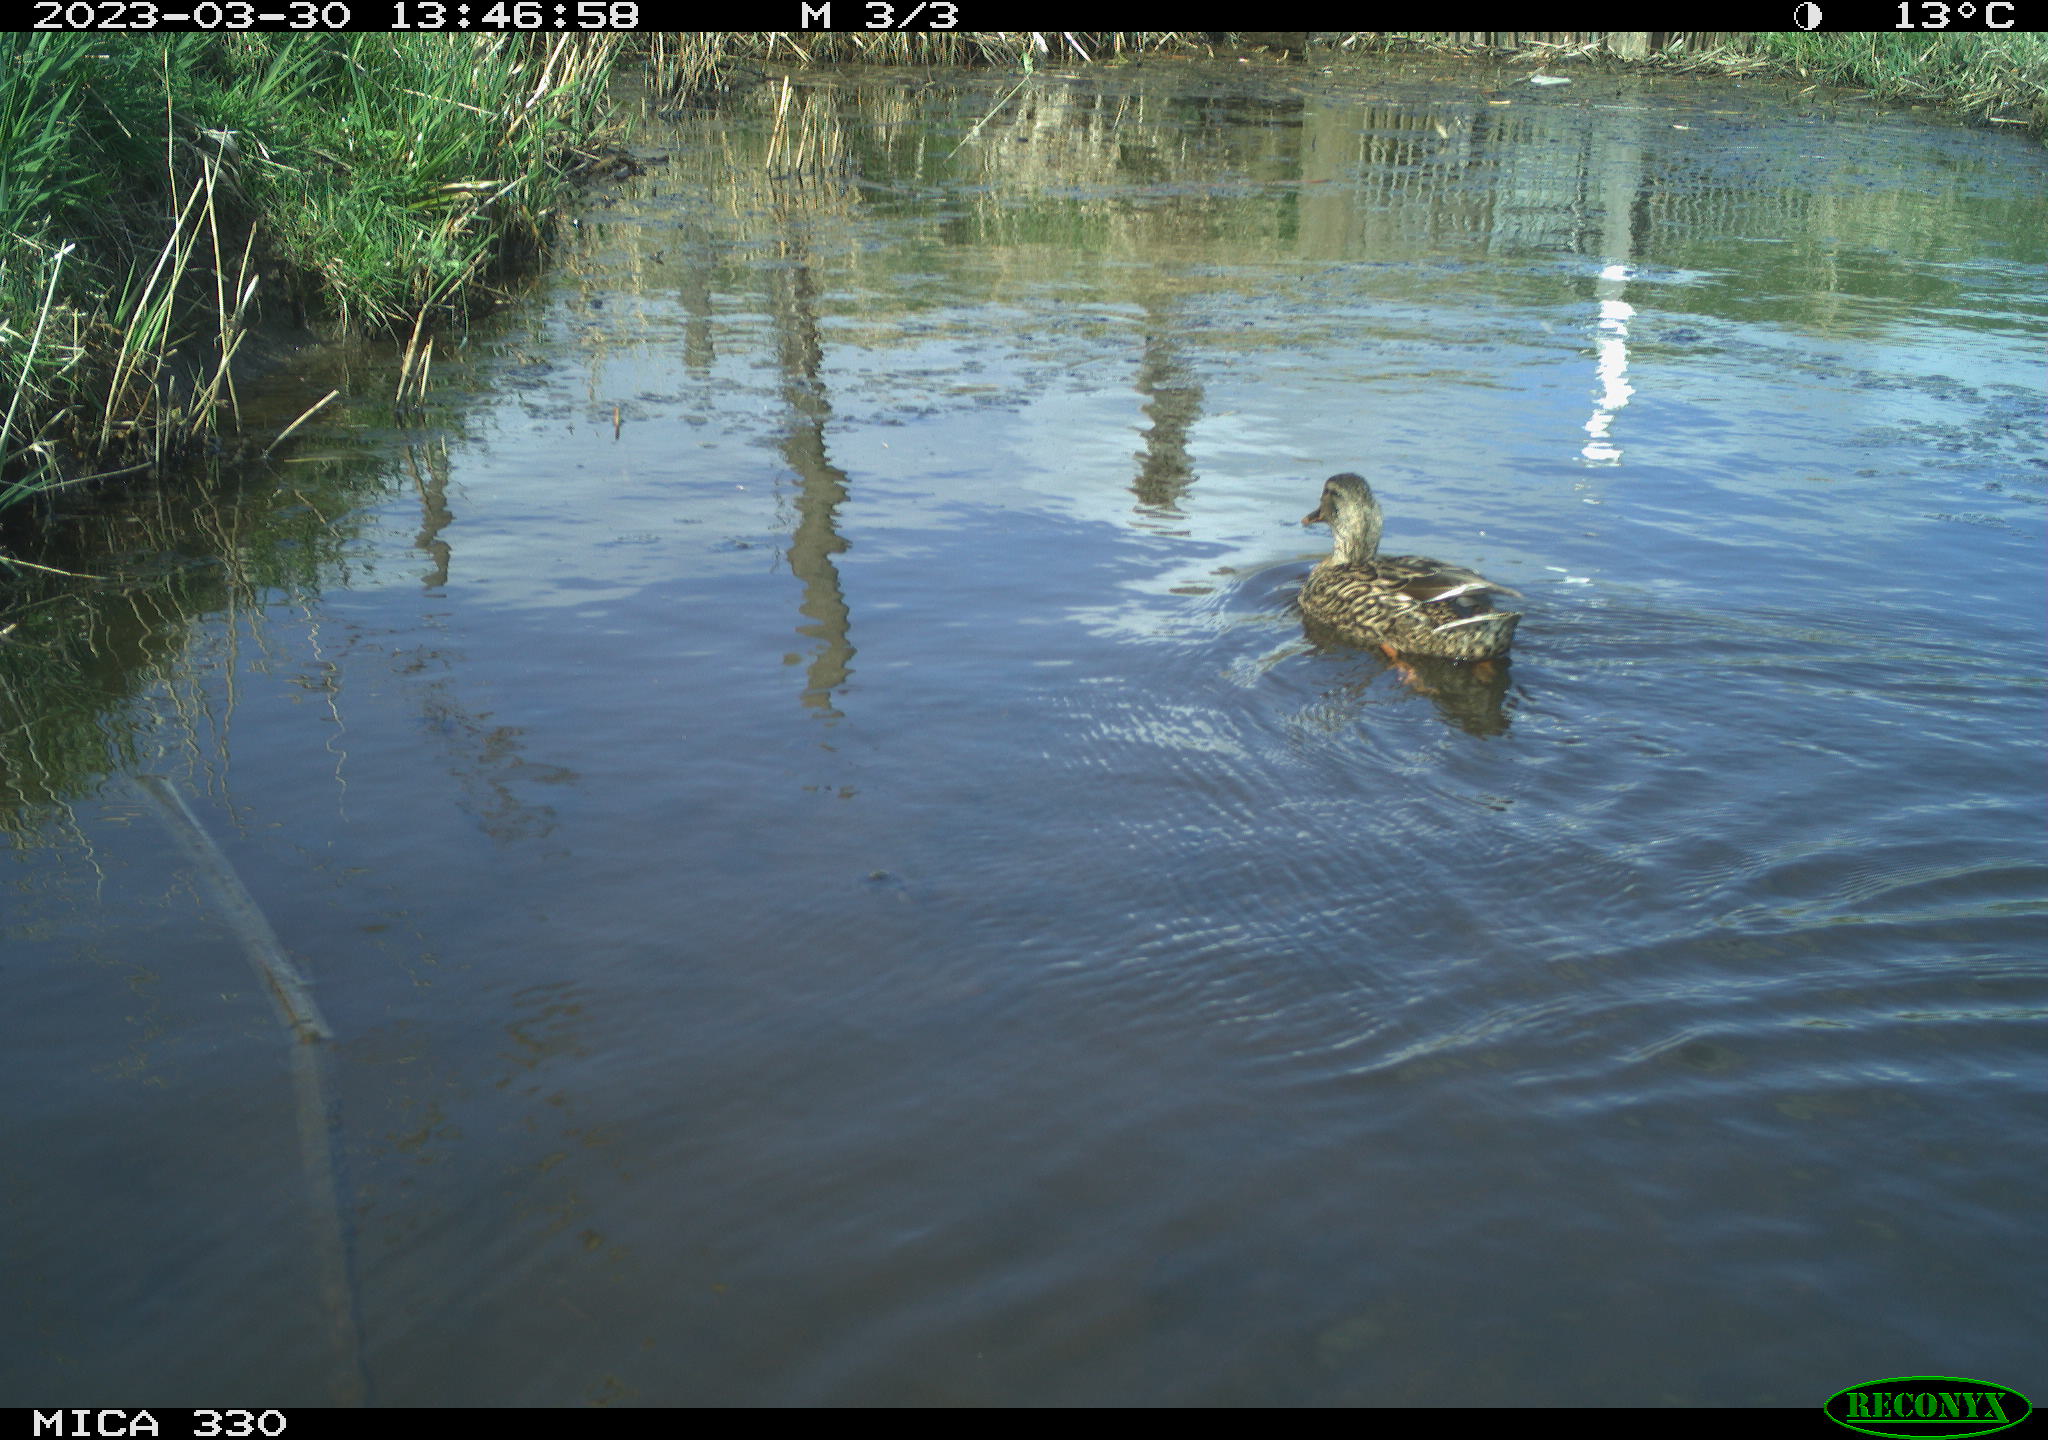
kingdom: Animalia
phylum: Chordata
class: Aves
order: Anseriformes
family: Anatidae
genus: Anas
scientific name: Anas
